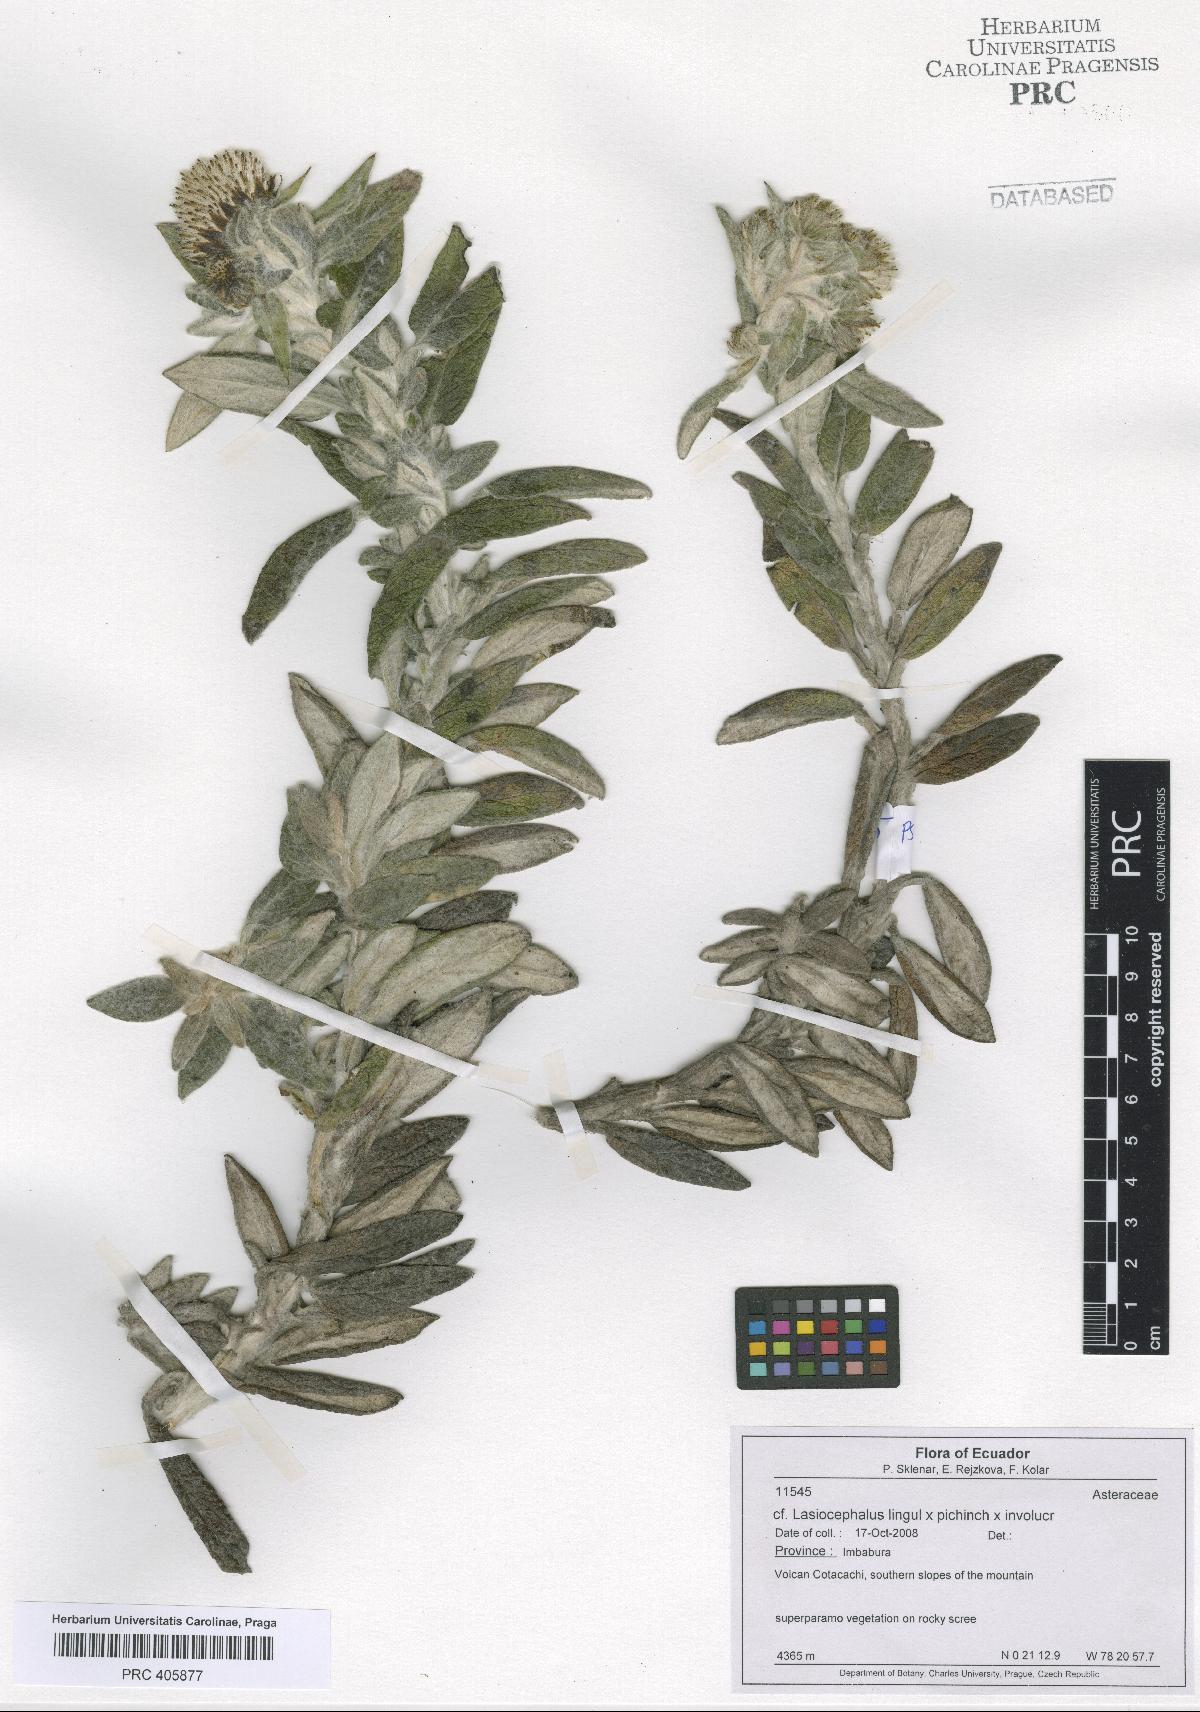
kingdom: Plantae
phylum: Tracheophyta
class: Magnoliopsida
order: Asterales
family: Asteraceae
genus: Lasiocephalus
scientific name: Lasiocephalus
